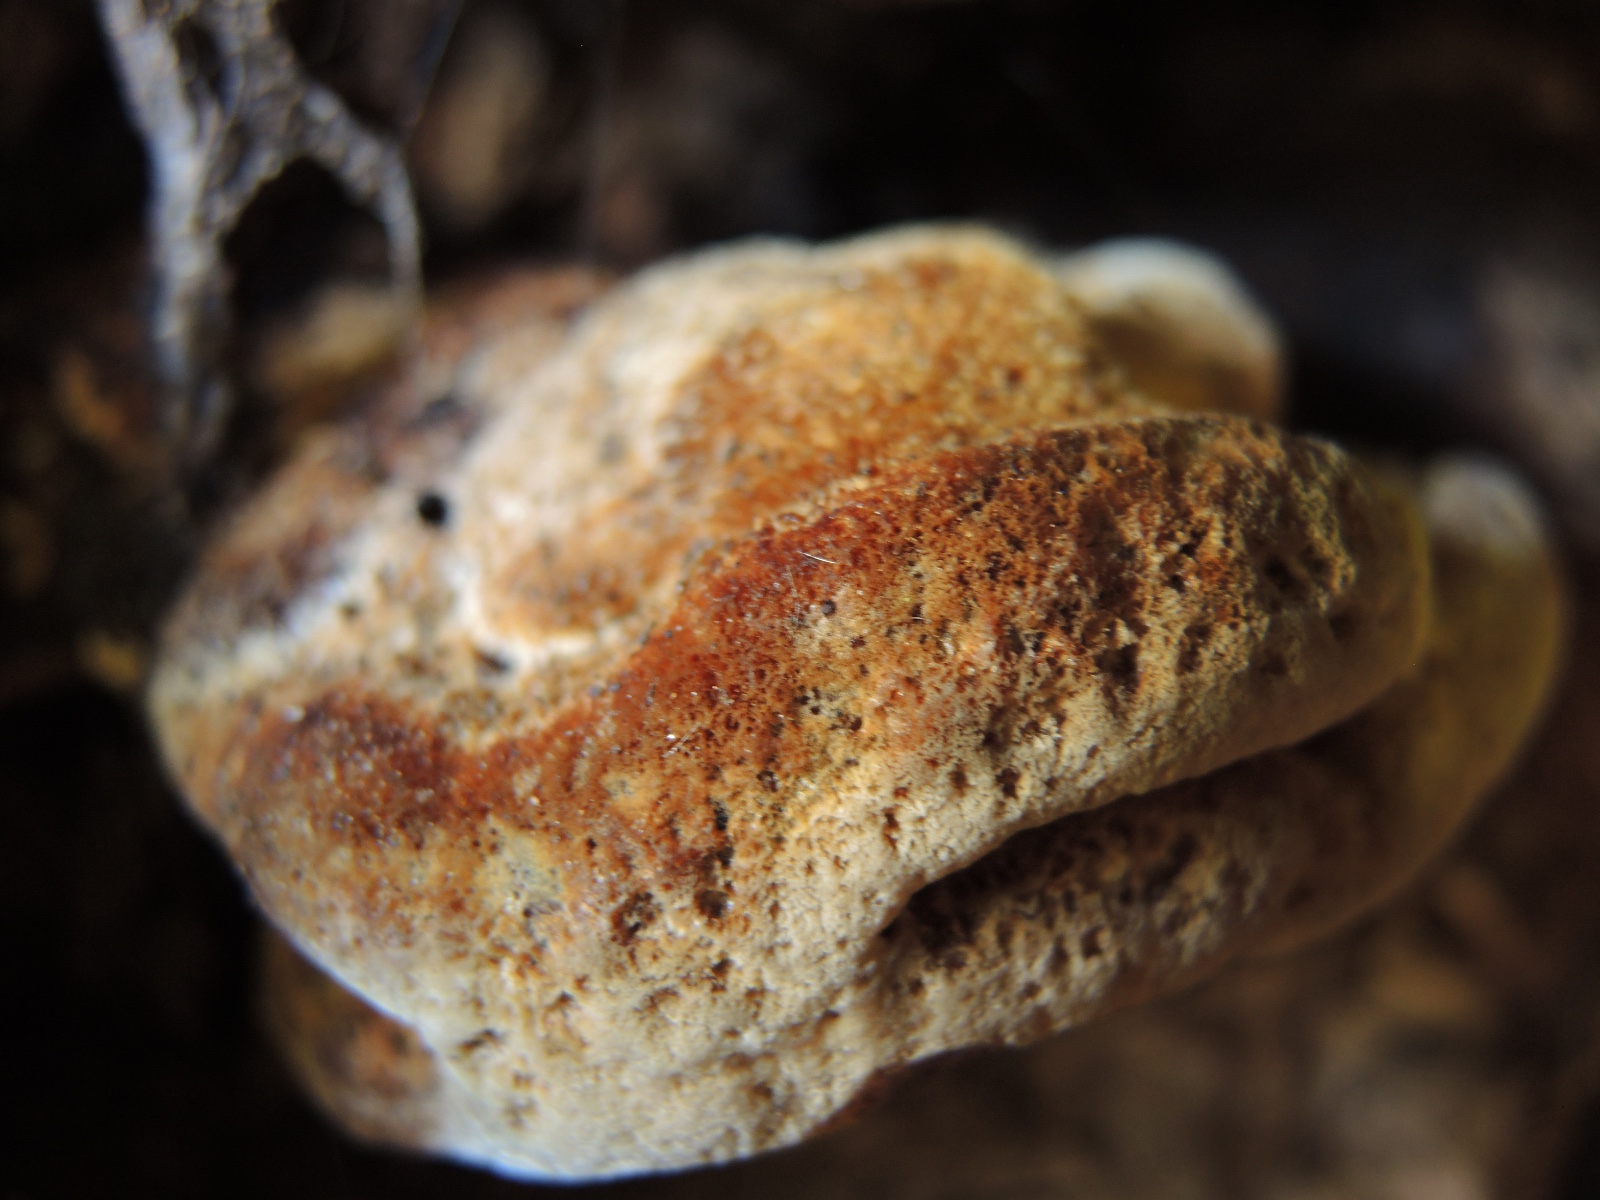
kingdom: Fungi
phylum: Basidiomycota
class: Agaricomycetes
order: Polyporales
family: Ischnodermataceae
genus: Ischnoderma
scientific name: Ischnoderma resinosum
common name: løv-tjæreporesvamp
